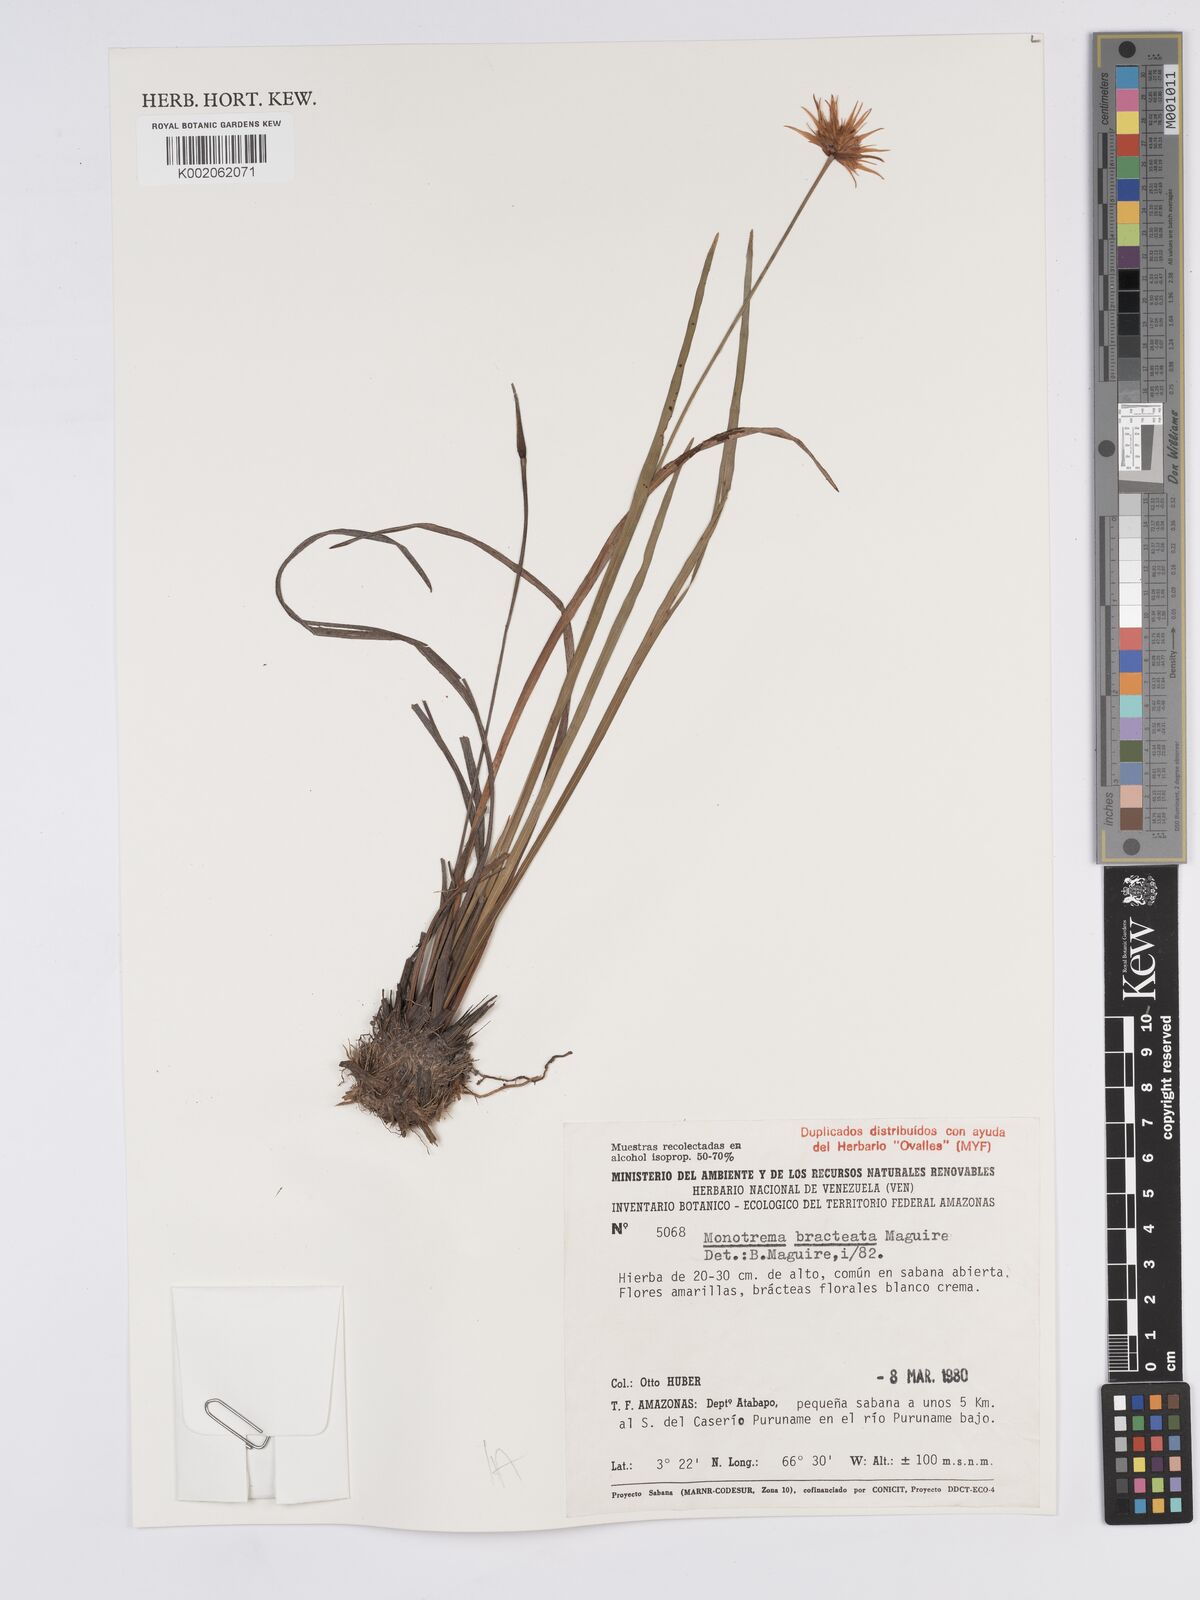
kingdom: Plantae
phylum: Tracheophyta
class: Liliopsida
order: Poales
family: Rapateaceae
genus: Monotrema
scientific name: Monotrema bracteatum
